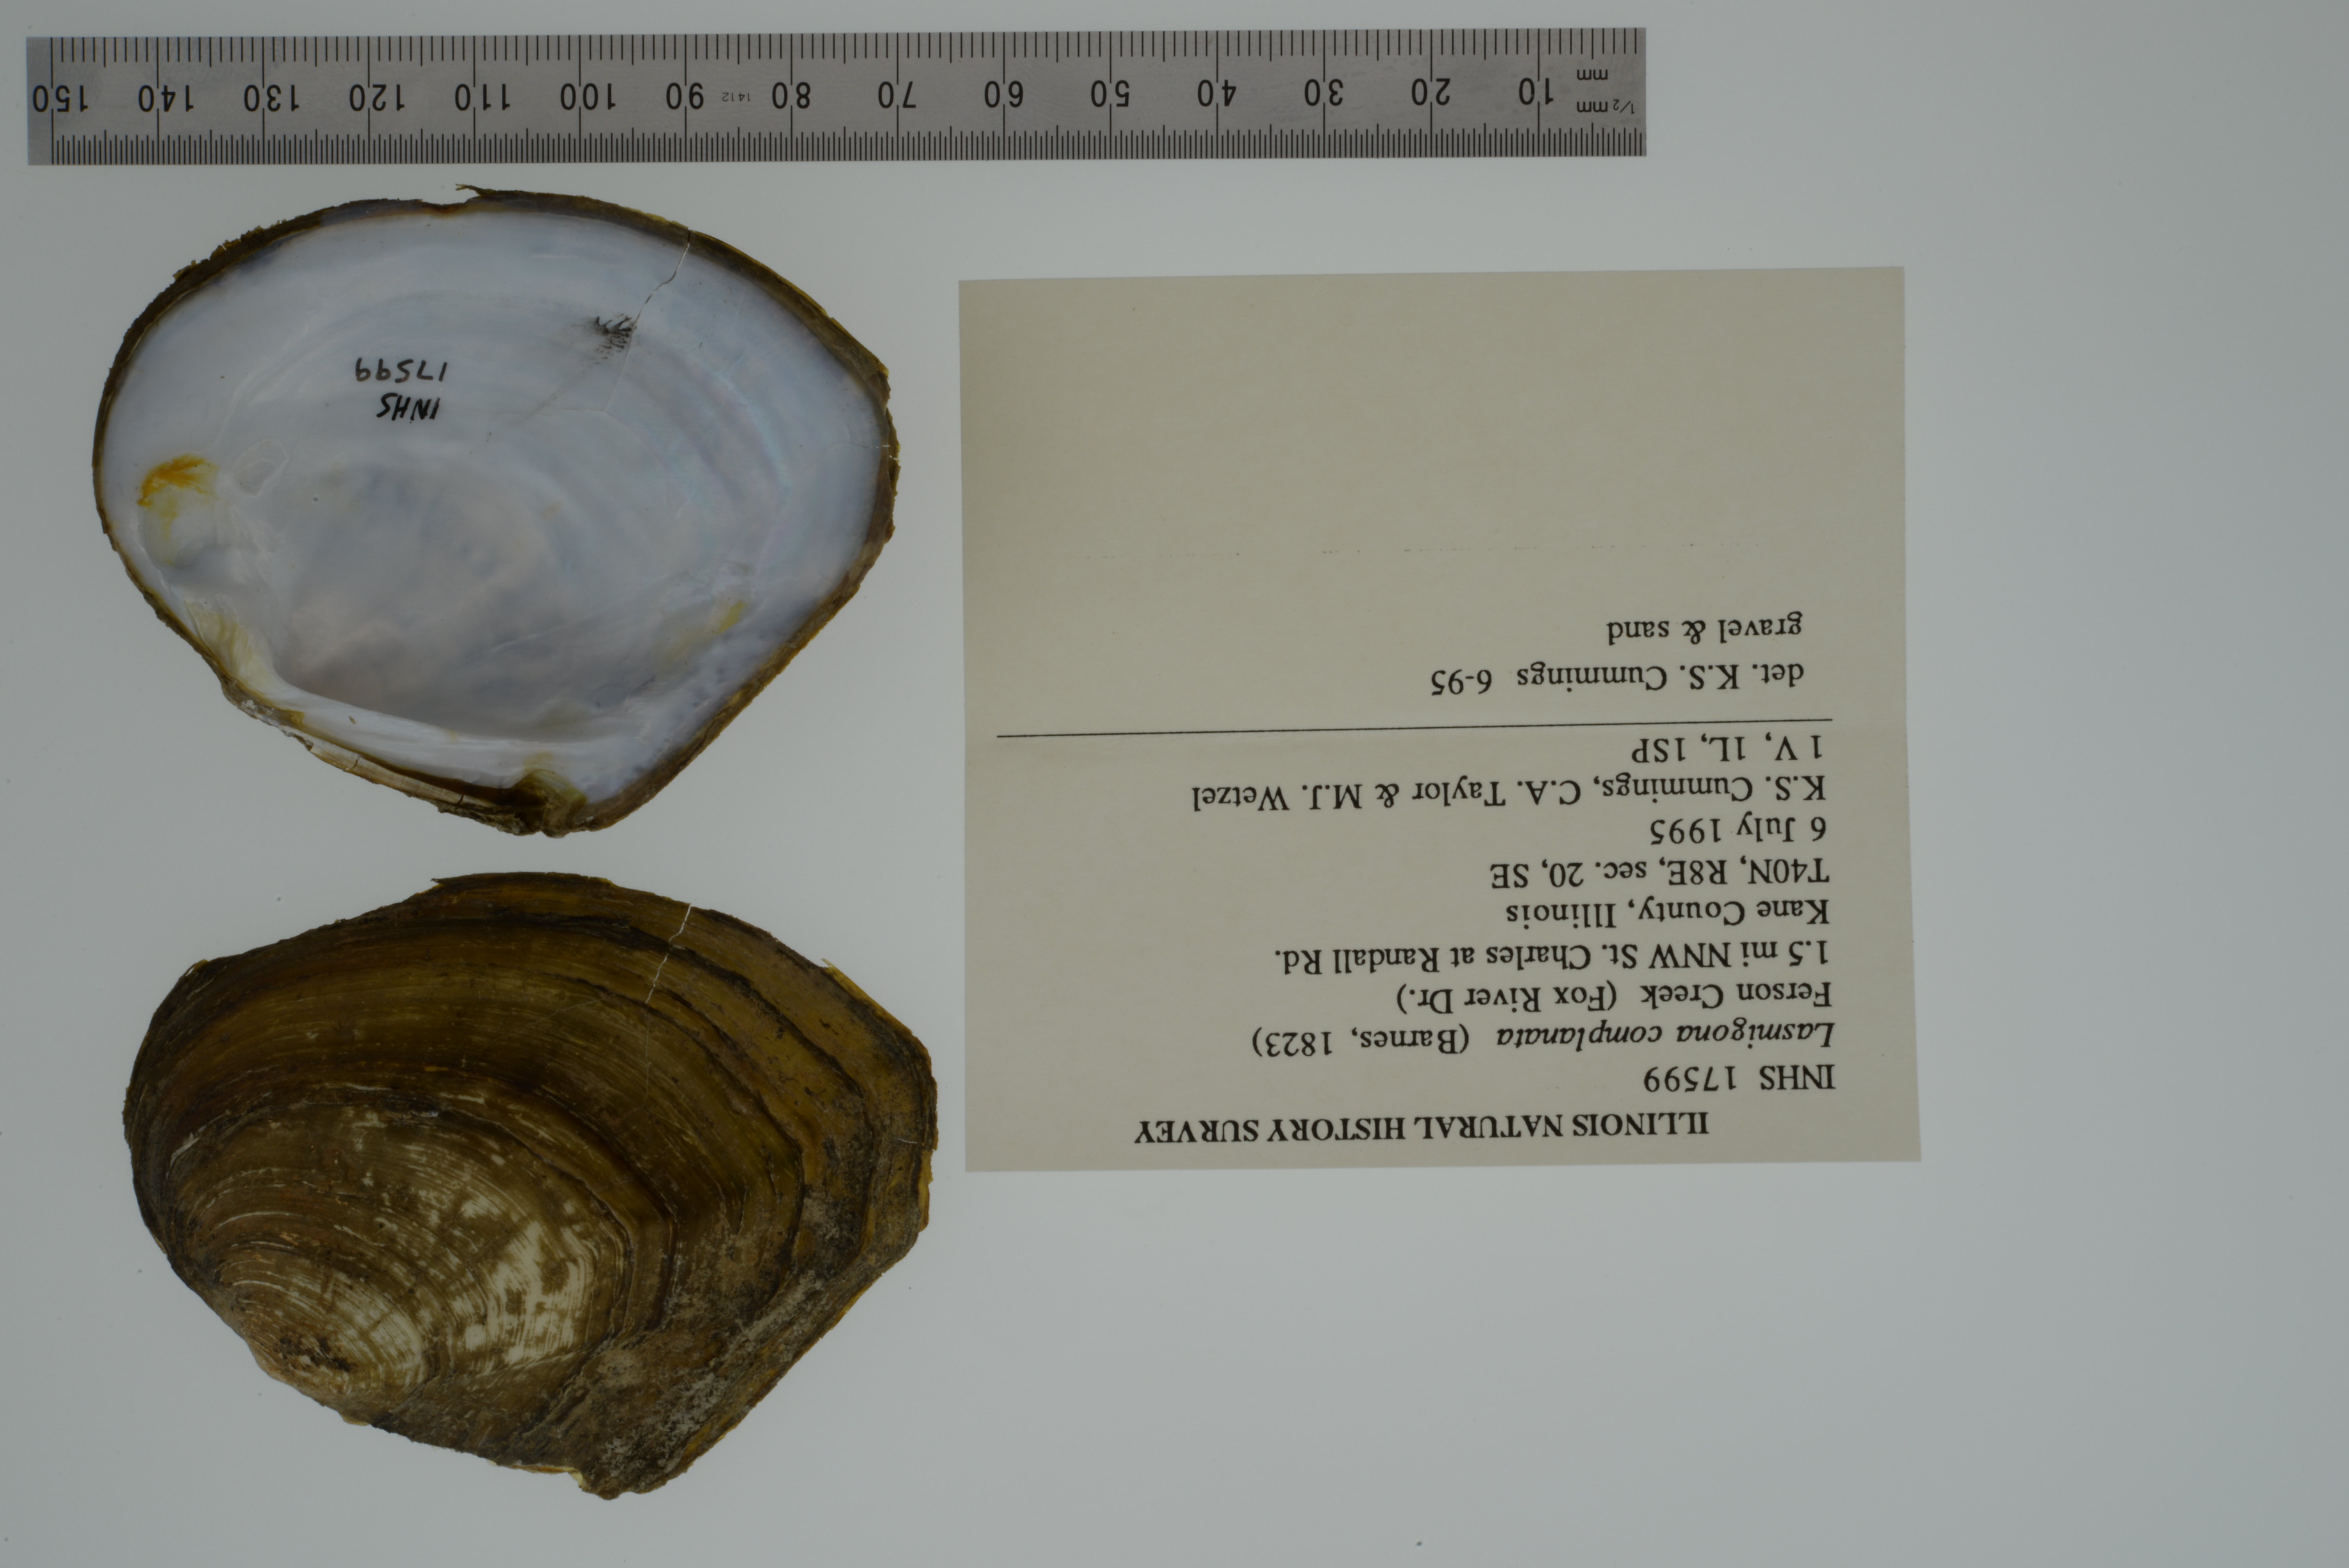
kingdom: Animalia
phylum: Mollusca
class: Bivalvia
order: Unionida
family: Unionidae
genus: Lasmigona
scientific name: Lasmigona complanata
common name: White heelsplitter
